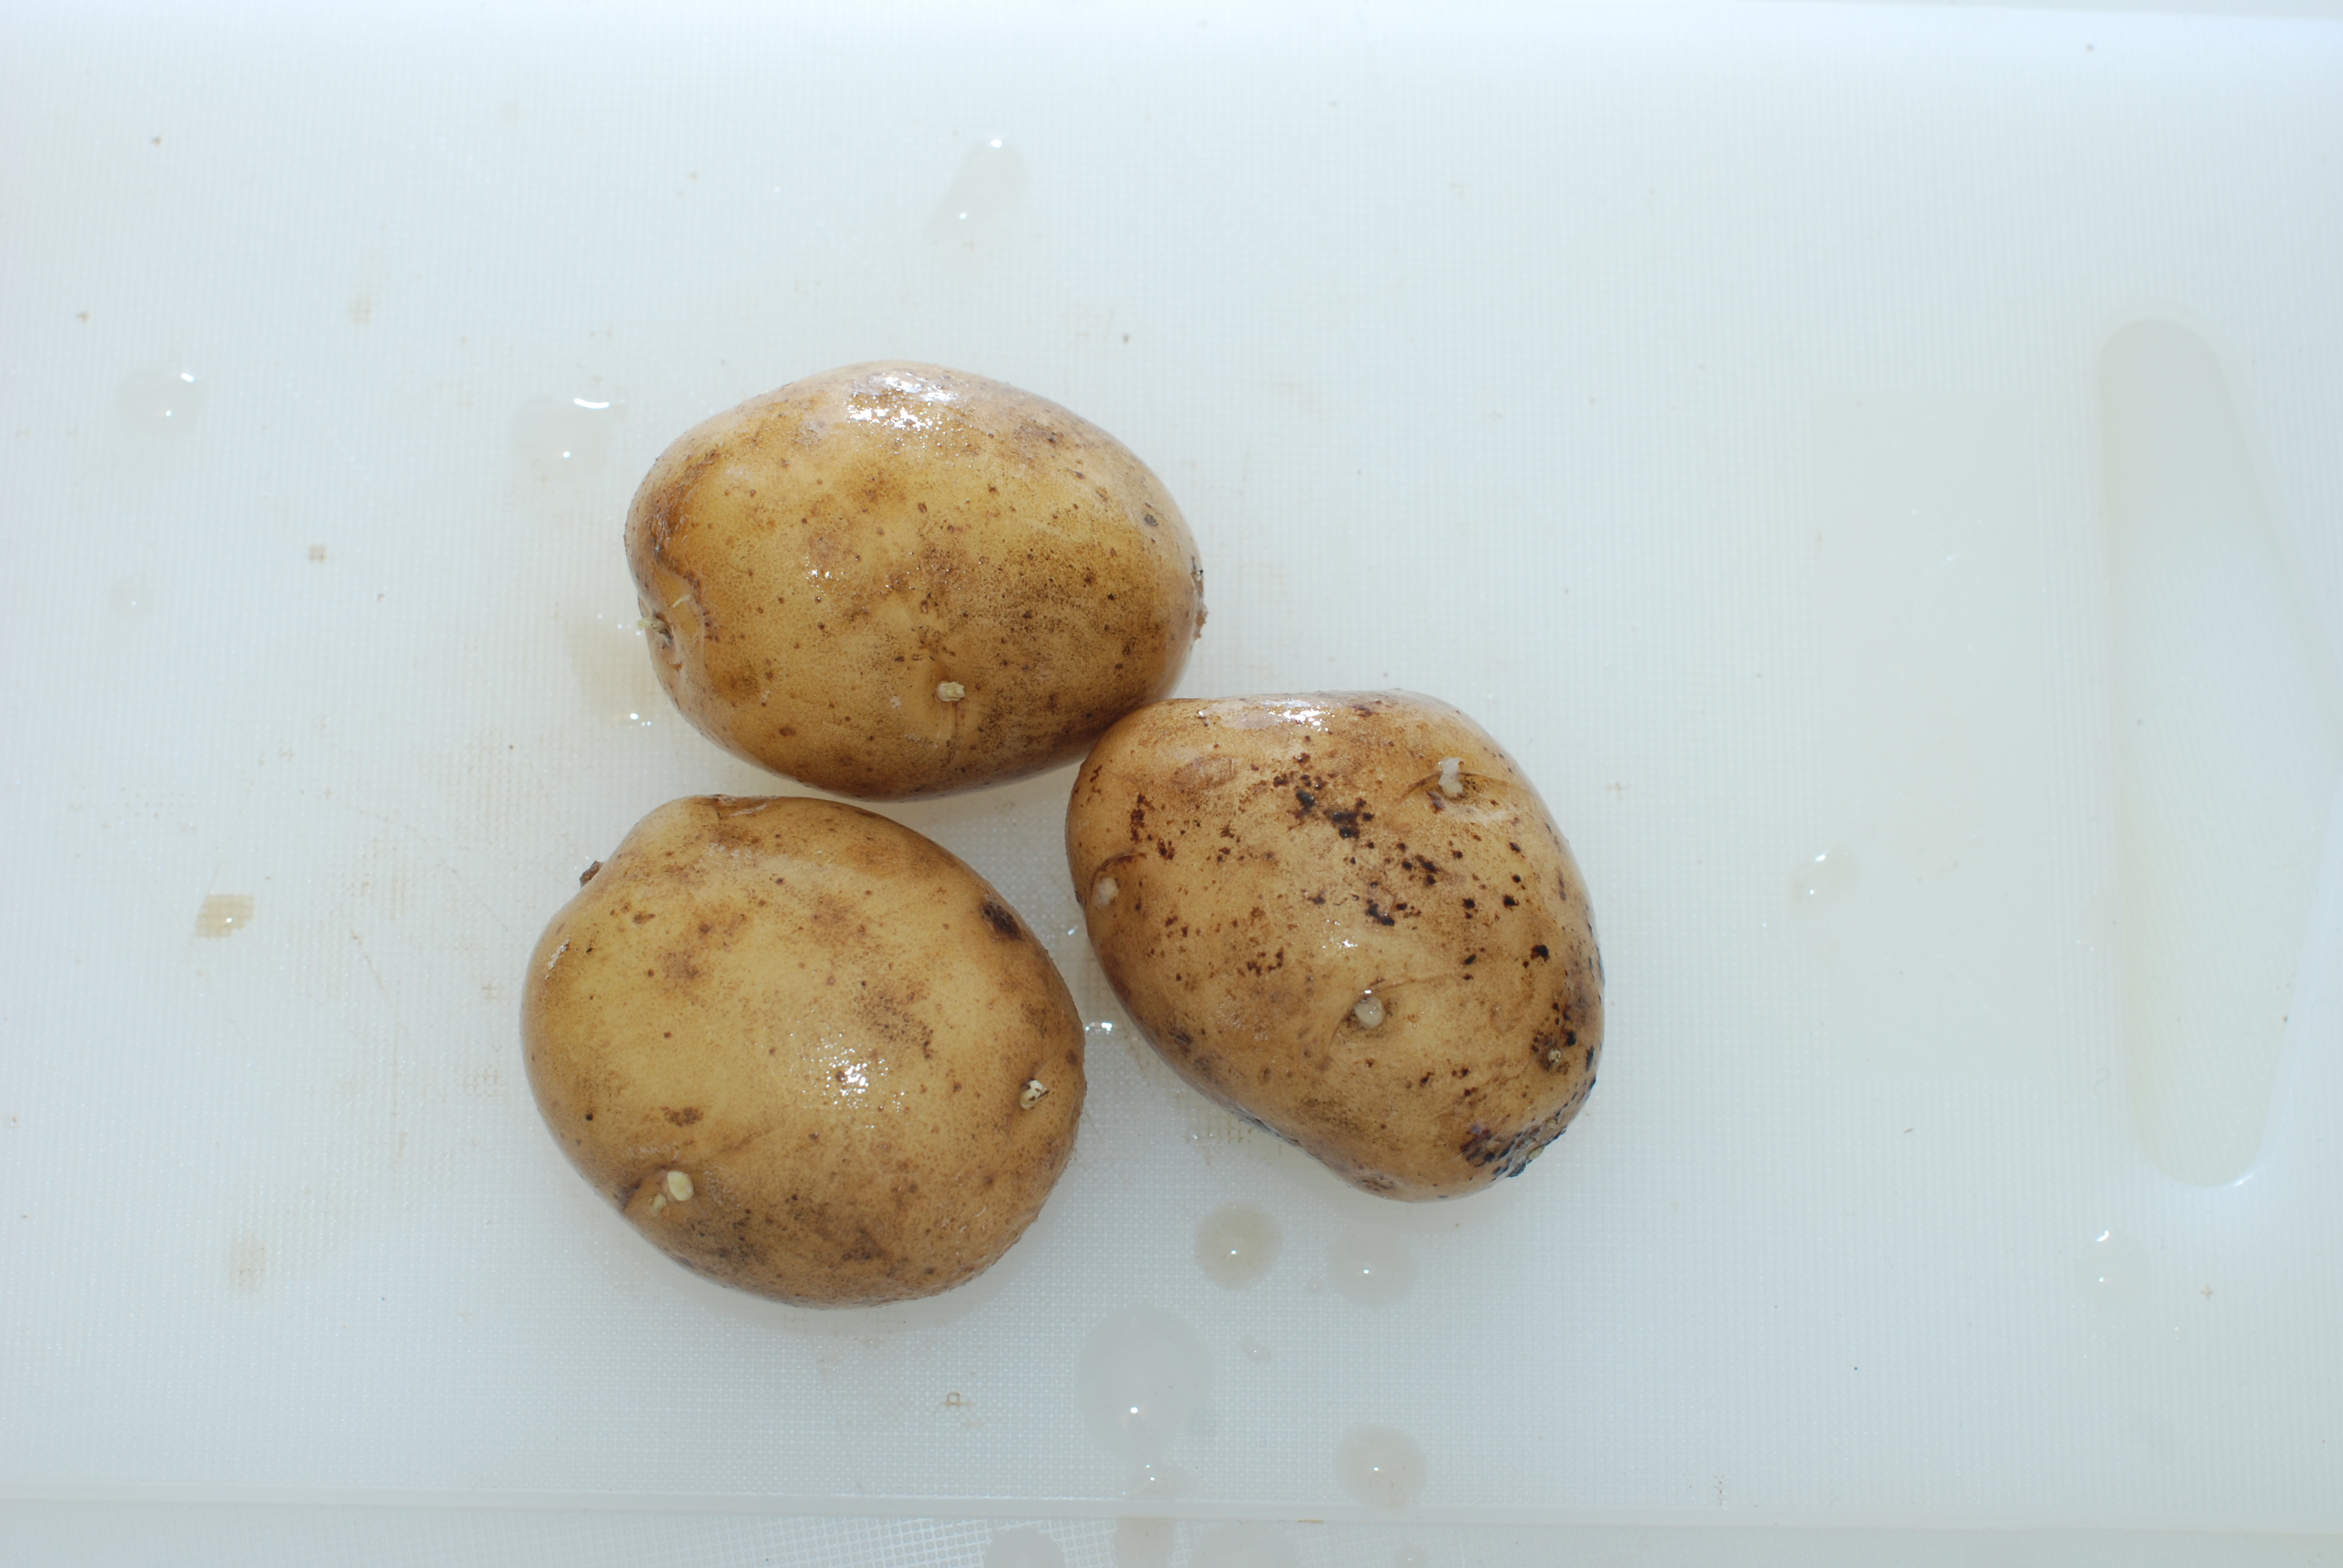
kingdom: Plantae
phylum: Tracheophyta
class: Magnoliopsida
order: Solanales
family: Solanaceae
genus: Solanum
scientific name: Solanum tuberosum
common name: Potato
